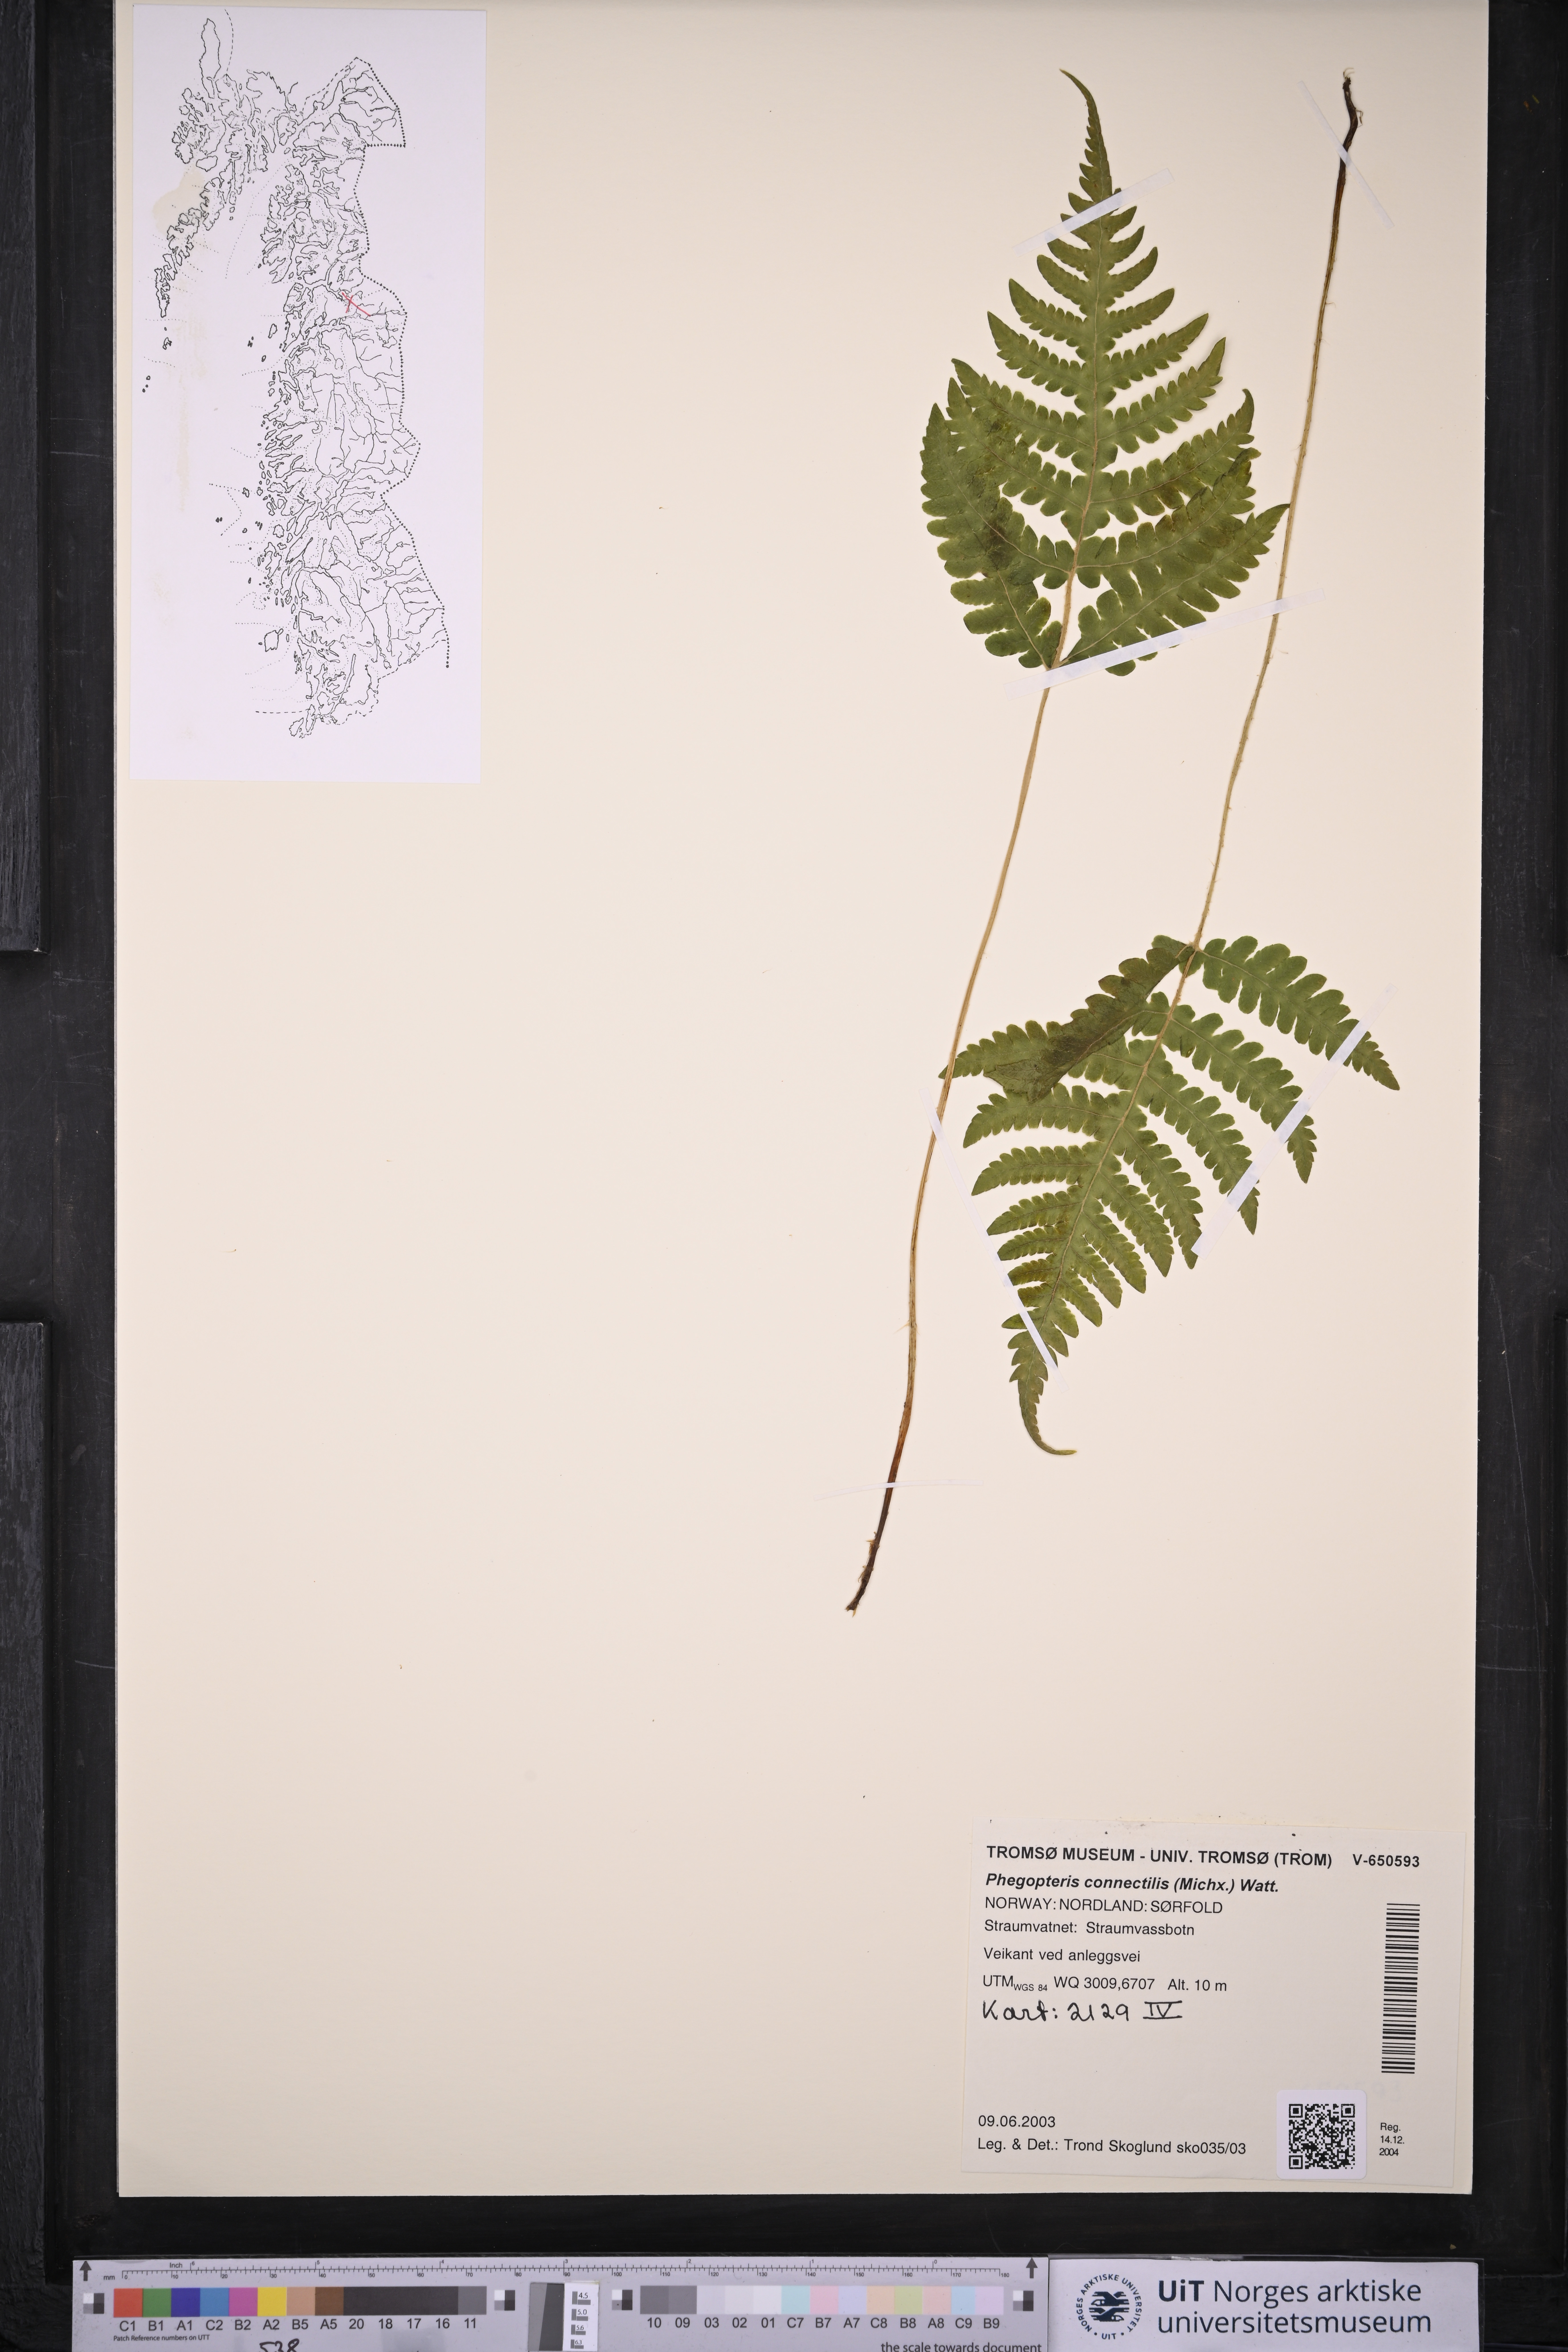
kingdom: Plantae
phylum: Tracheophyta
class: Polypodiopsida
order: Polypodiales
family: Thelypteridaceae
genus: Phegopteris
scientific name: Phegopteris connectilis
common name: Beech fern
